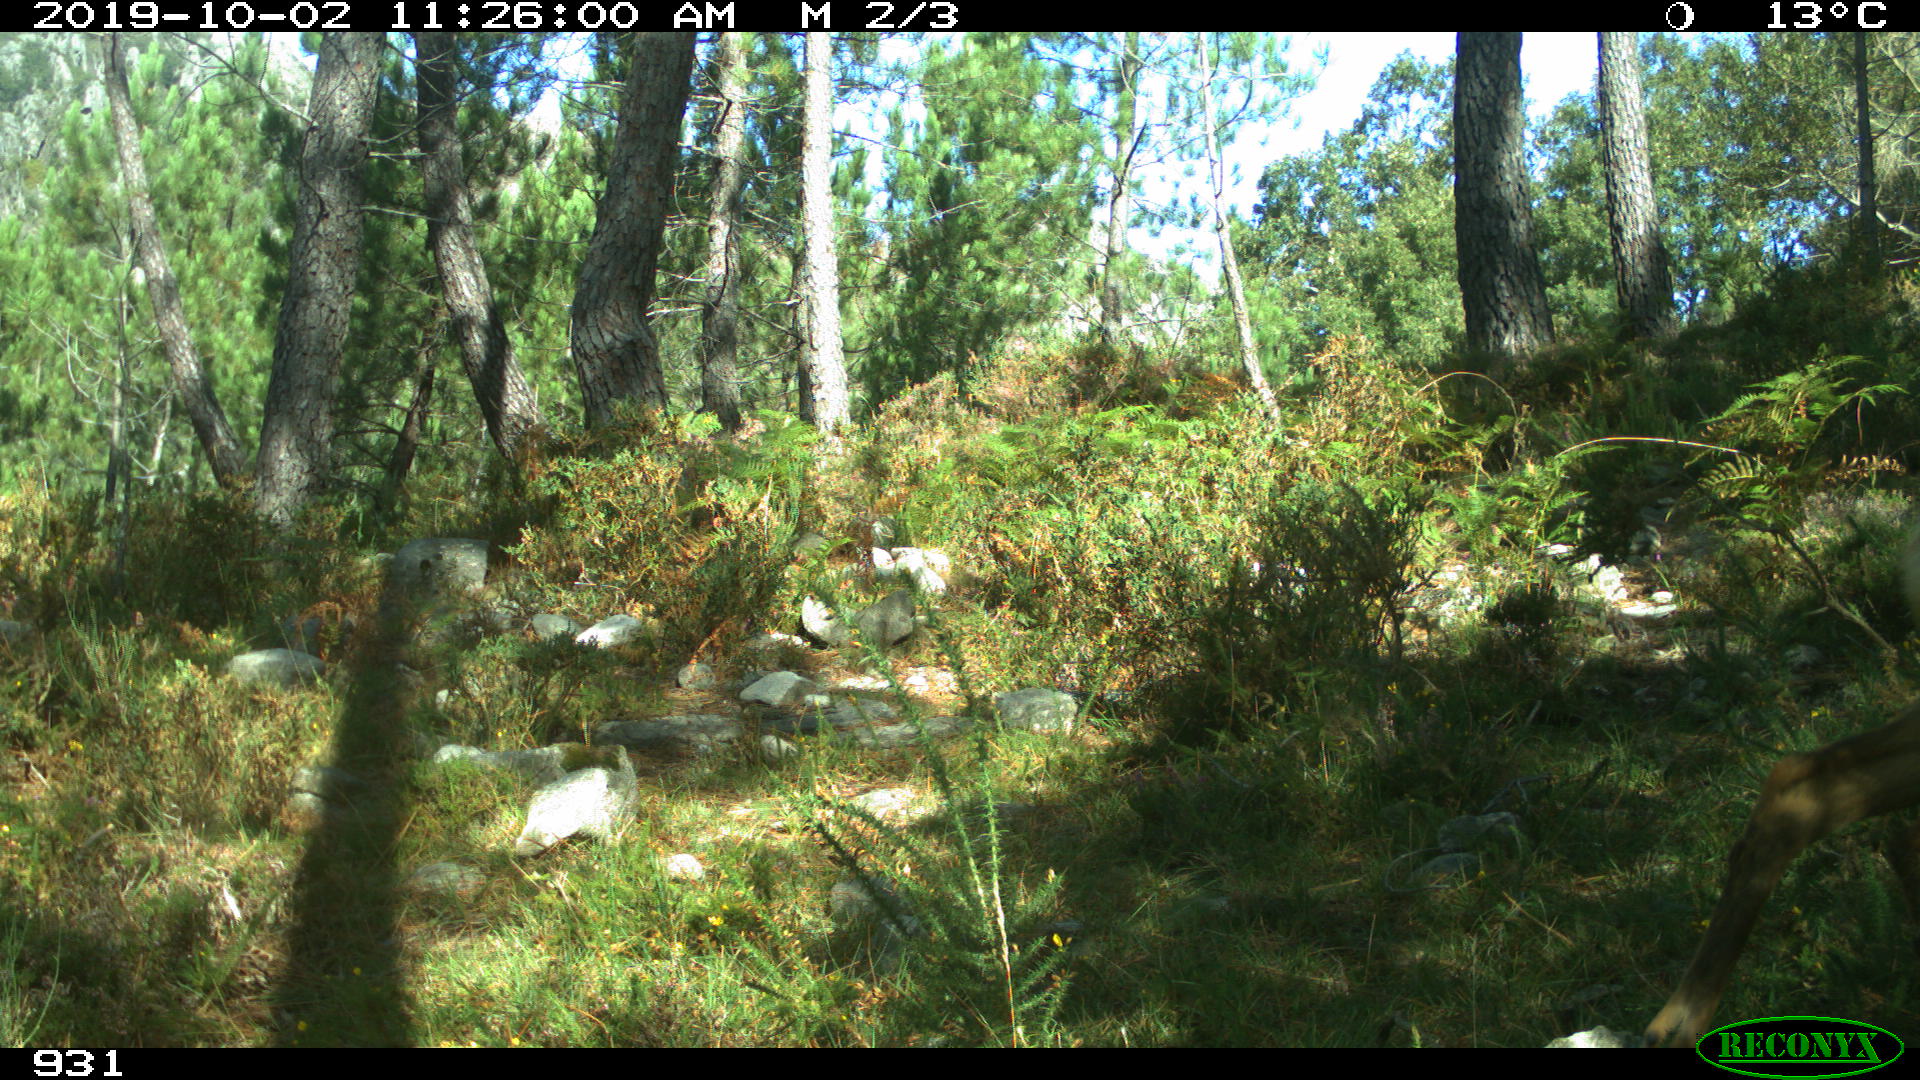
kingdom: Animalia
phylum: Chordata
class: Mammalia
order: Artiodactyla
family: Cervidae
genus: Capreolus
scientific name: Capreolus capreolus
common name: Western roe deer
